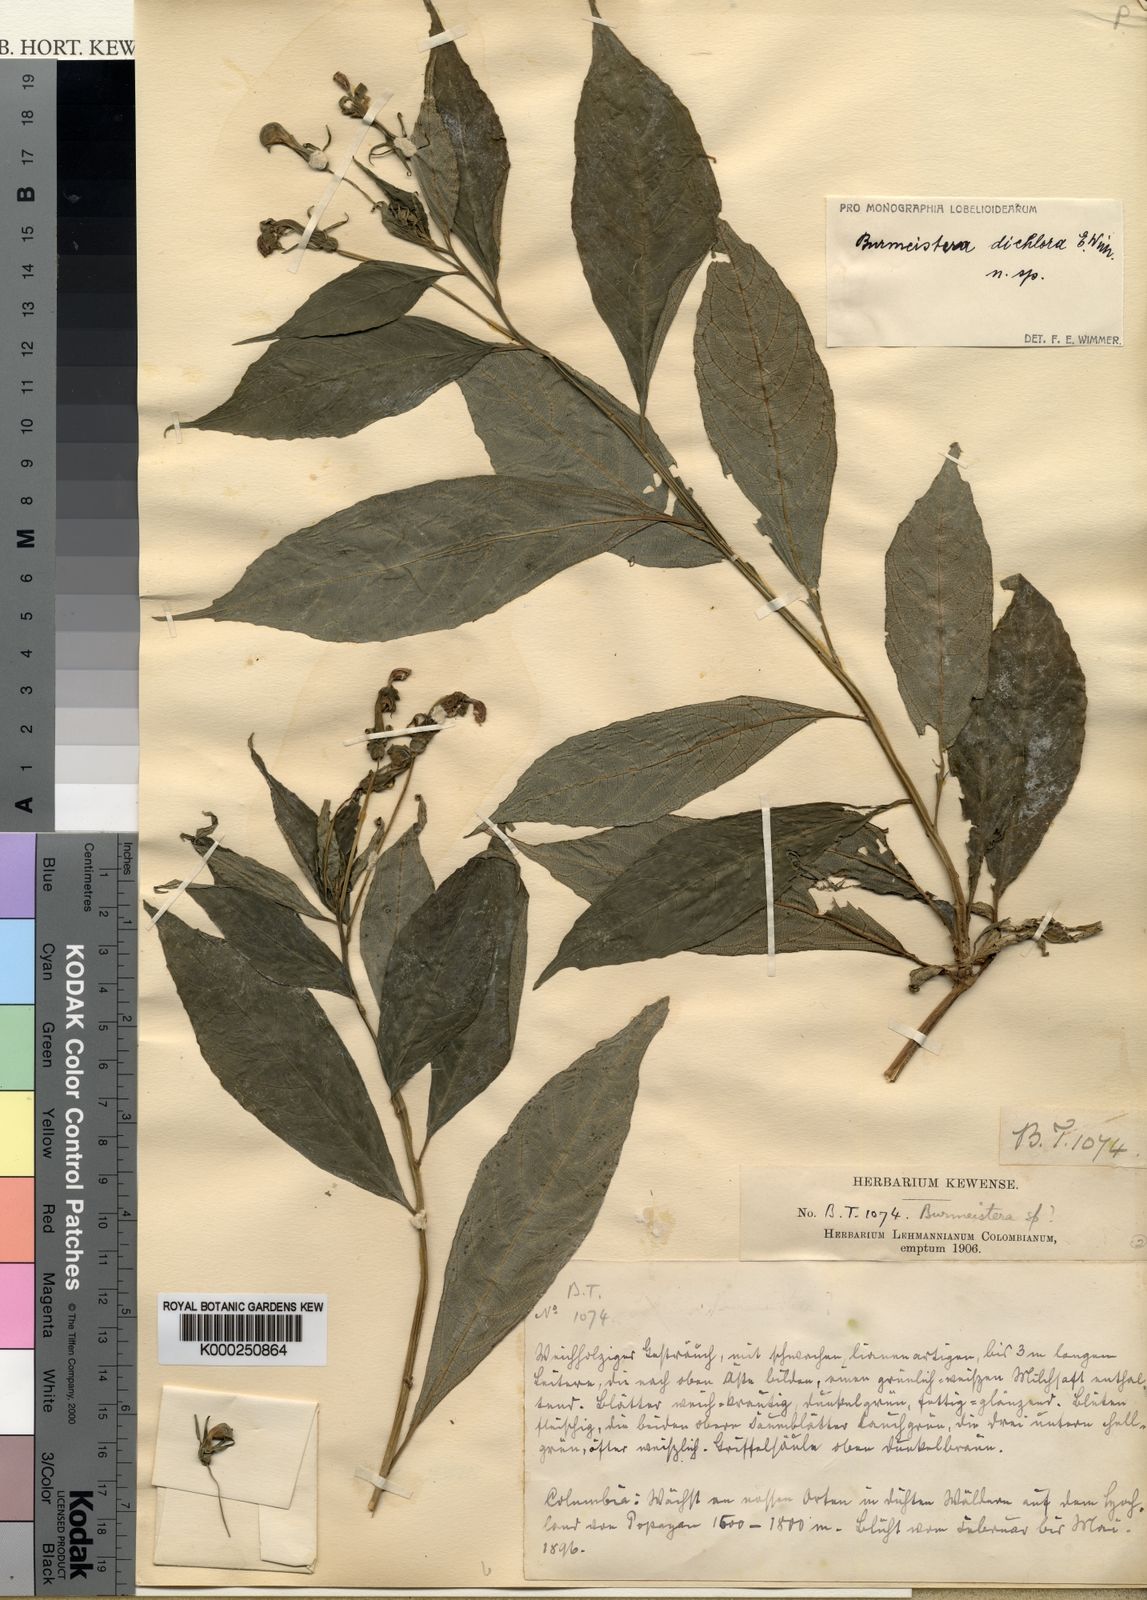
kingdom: Plantae
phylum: Tracheophyta
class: Magnoliopsida
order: Asterales
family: Campanulaceae
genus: Burmeistera
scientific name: Burmeistera dichlora
